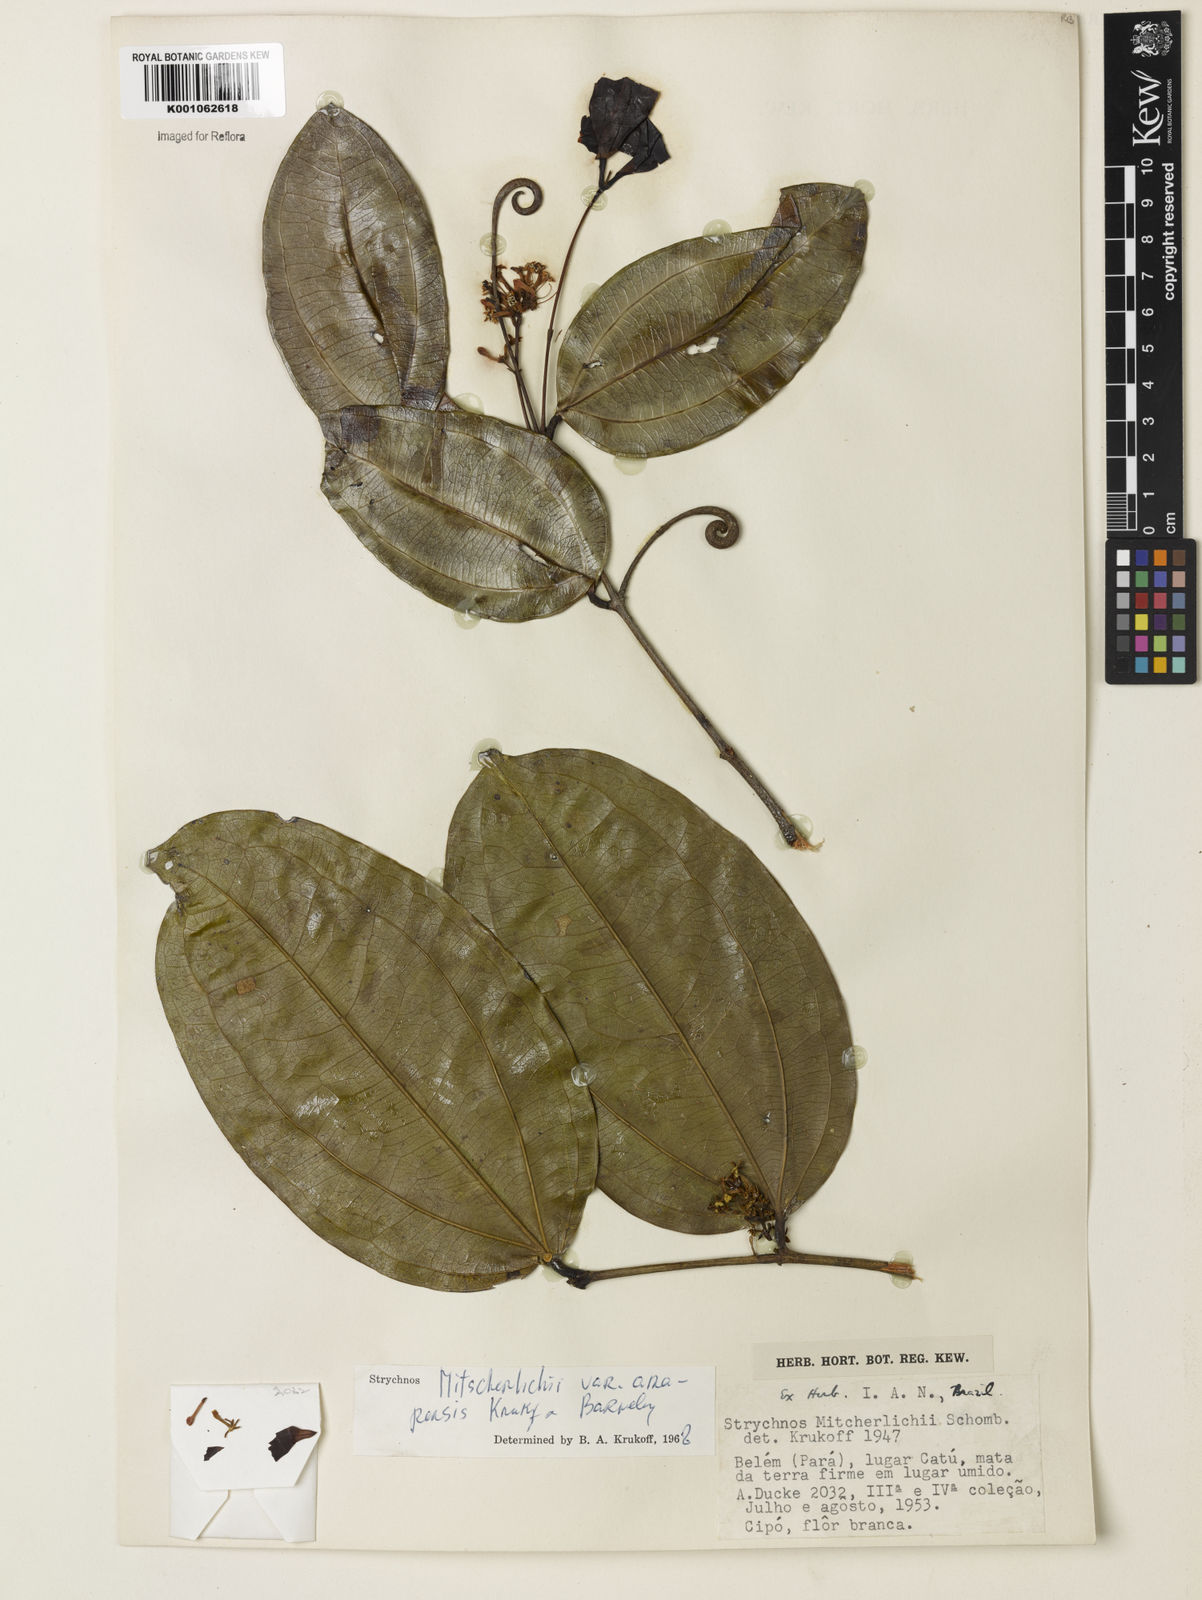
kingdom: Plantae
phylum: Tracheophyta
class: Magnoliopsida
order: Gentianales
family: Loganiaceae
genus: Strychnos
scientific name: Strychnos mitscherlichii
